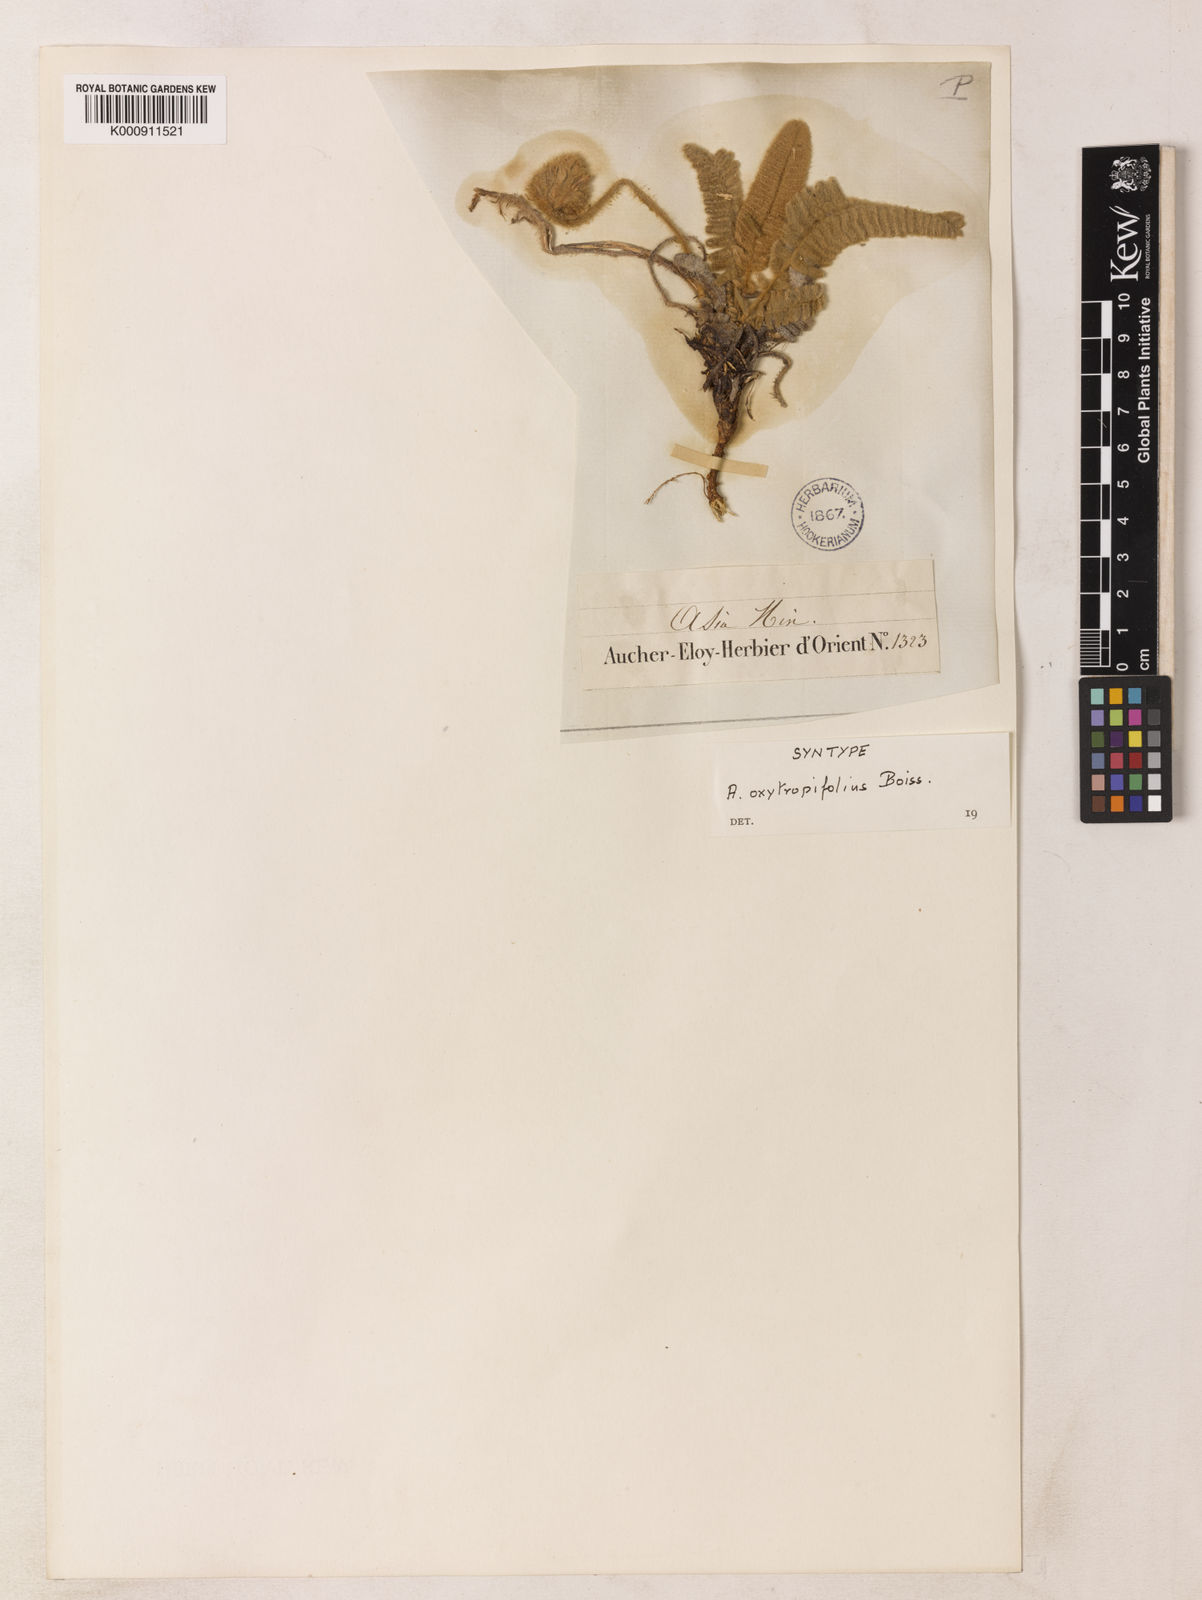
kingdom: Plantae
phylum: Tracheophyta
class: Magnoliopsida
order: Fabales
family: Fabaceae
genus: Astragalus
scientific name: Astragalus oxytropifolius
